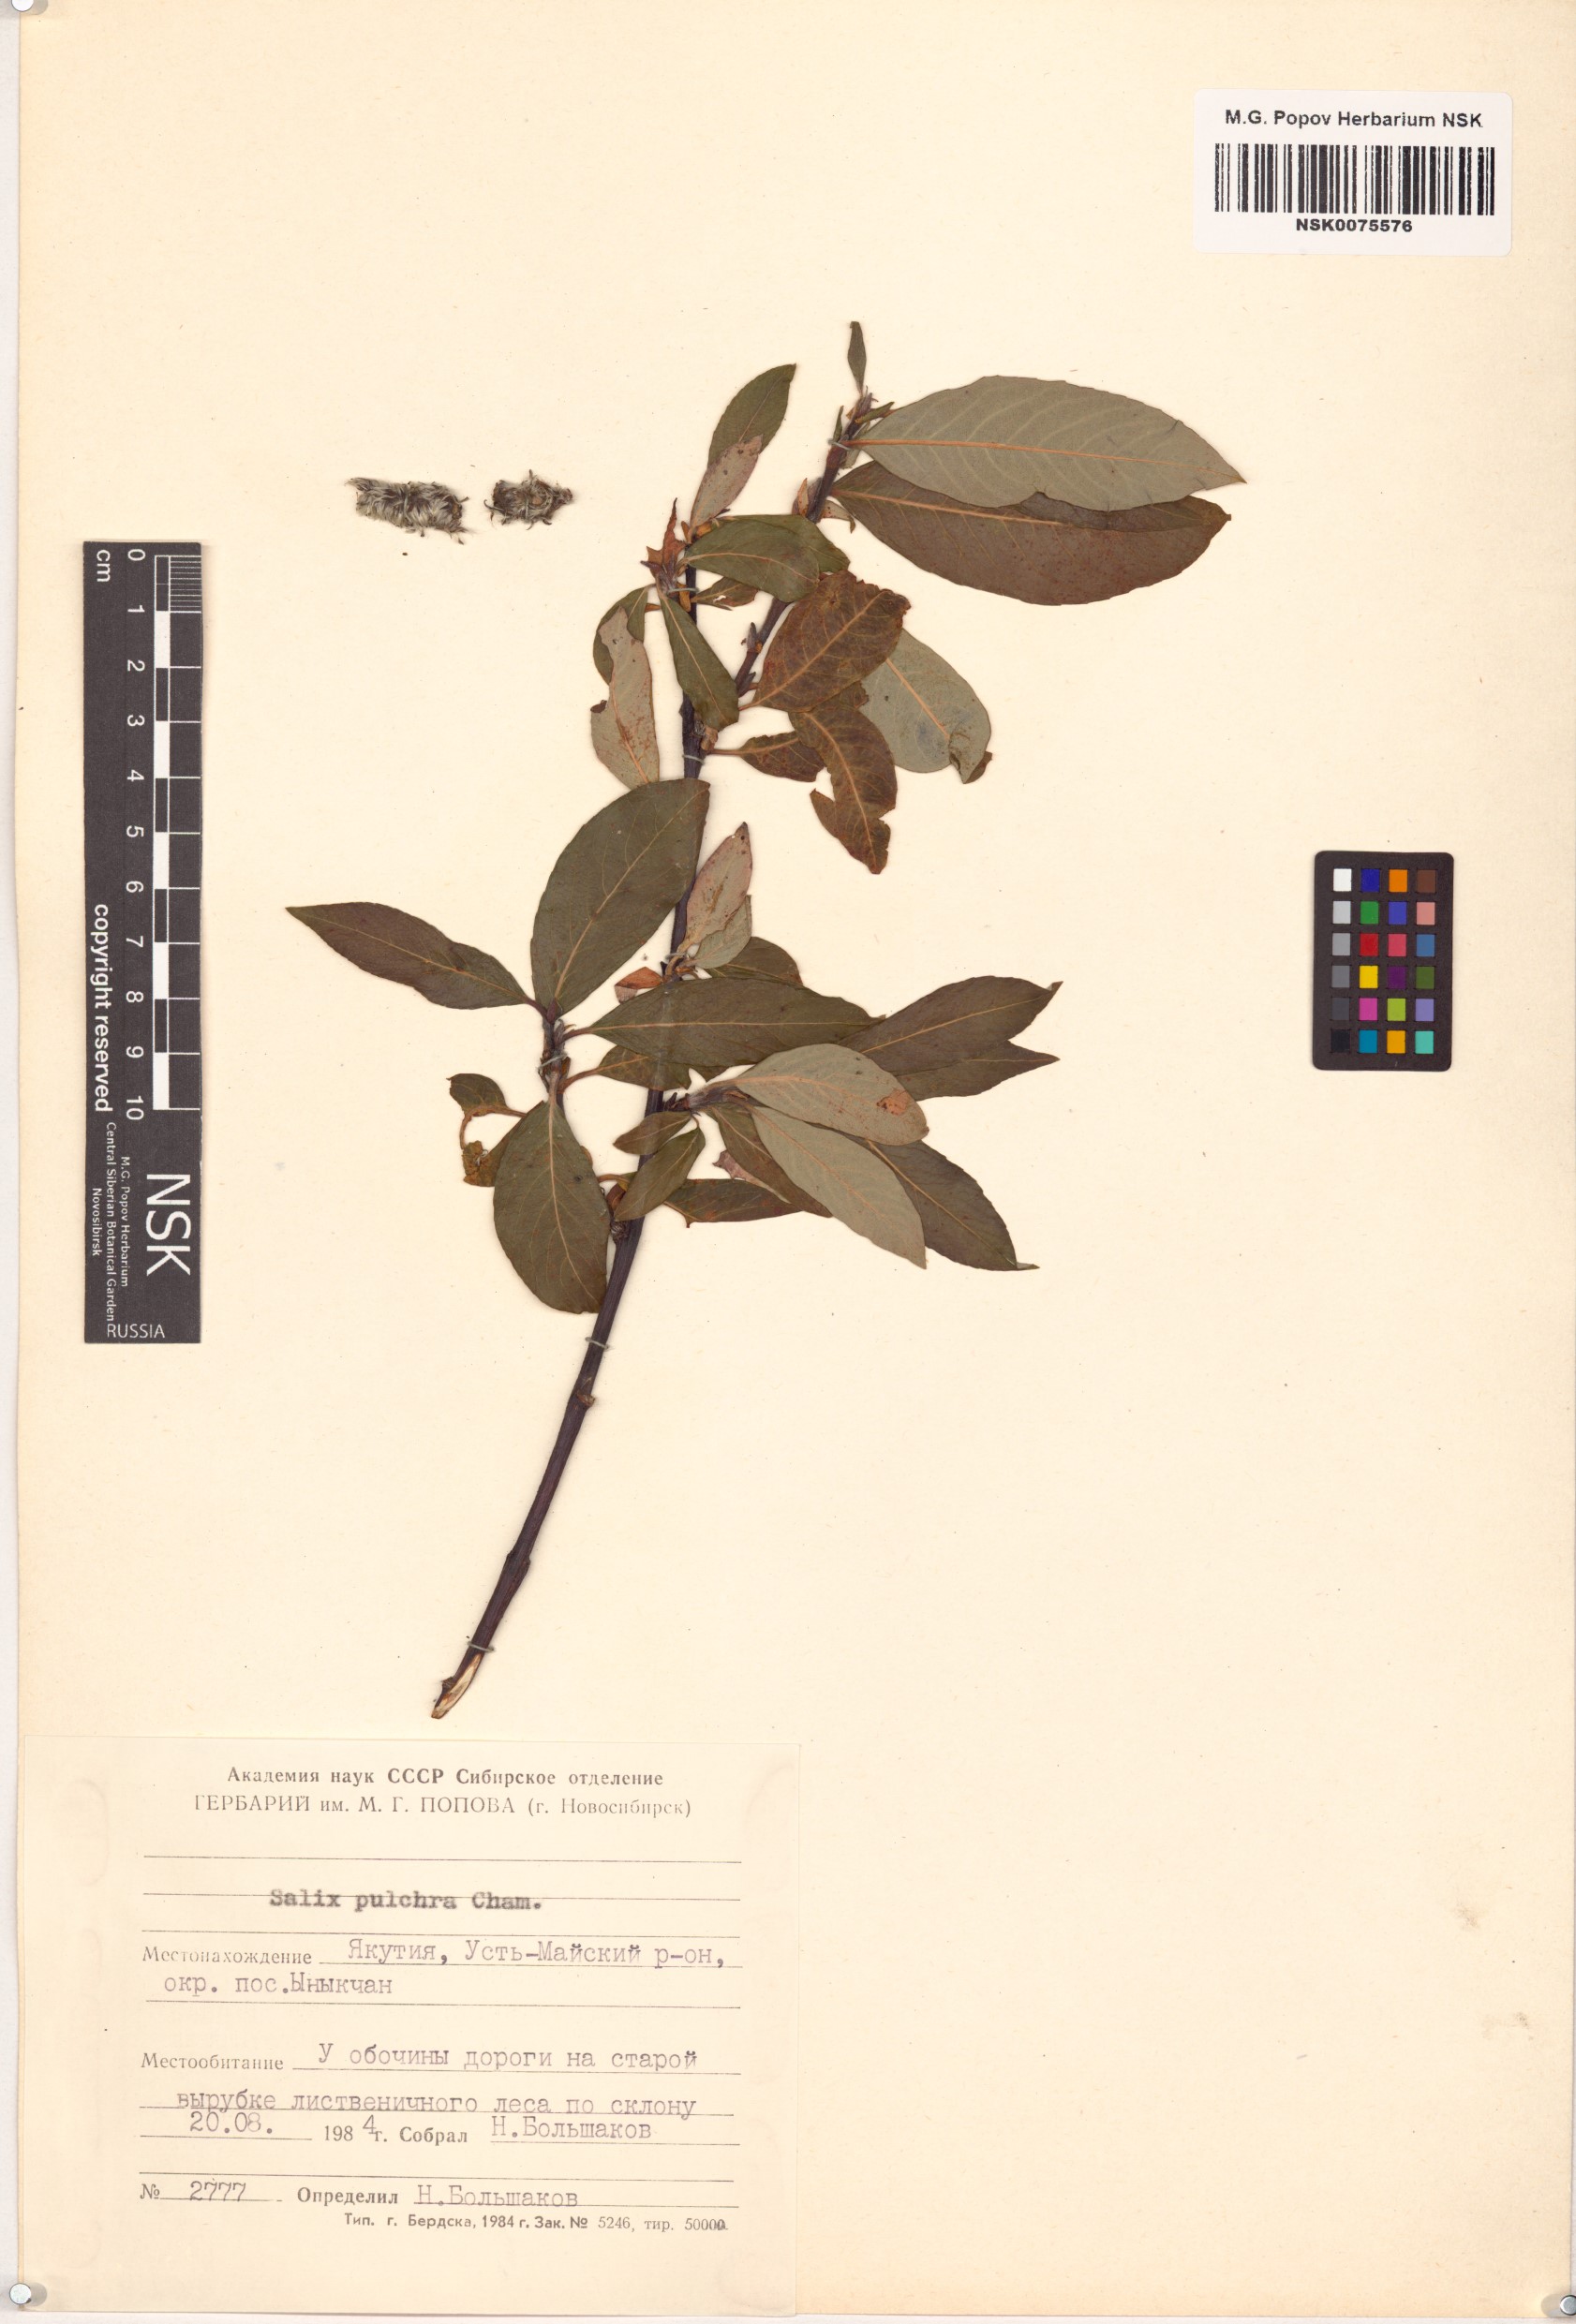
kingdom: Plantae
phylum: Tracheophyta
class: Magnoliopsida
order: Malpighiales
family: Salicaceae
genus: Salix
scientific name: Salix pulchra
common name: Diamond-leaved willow
